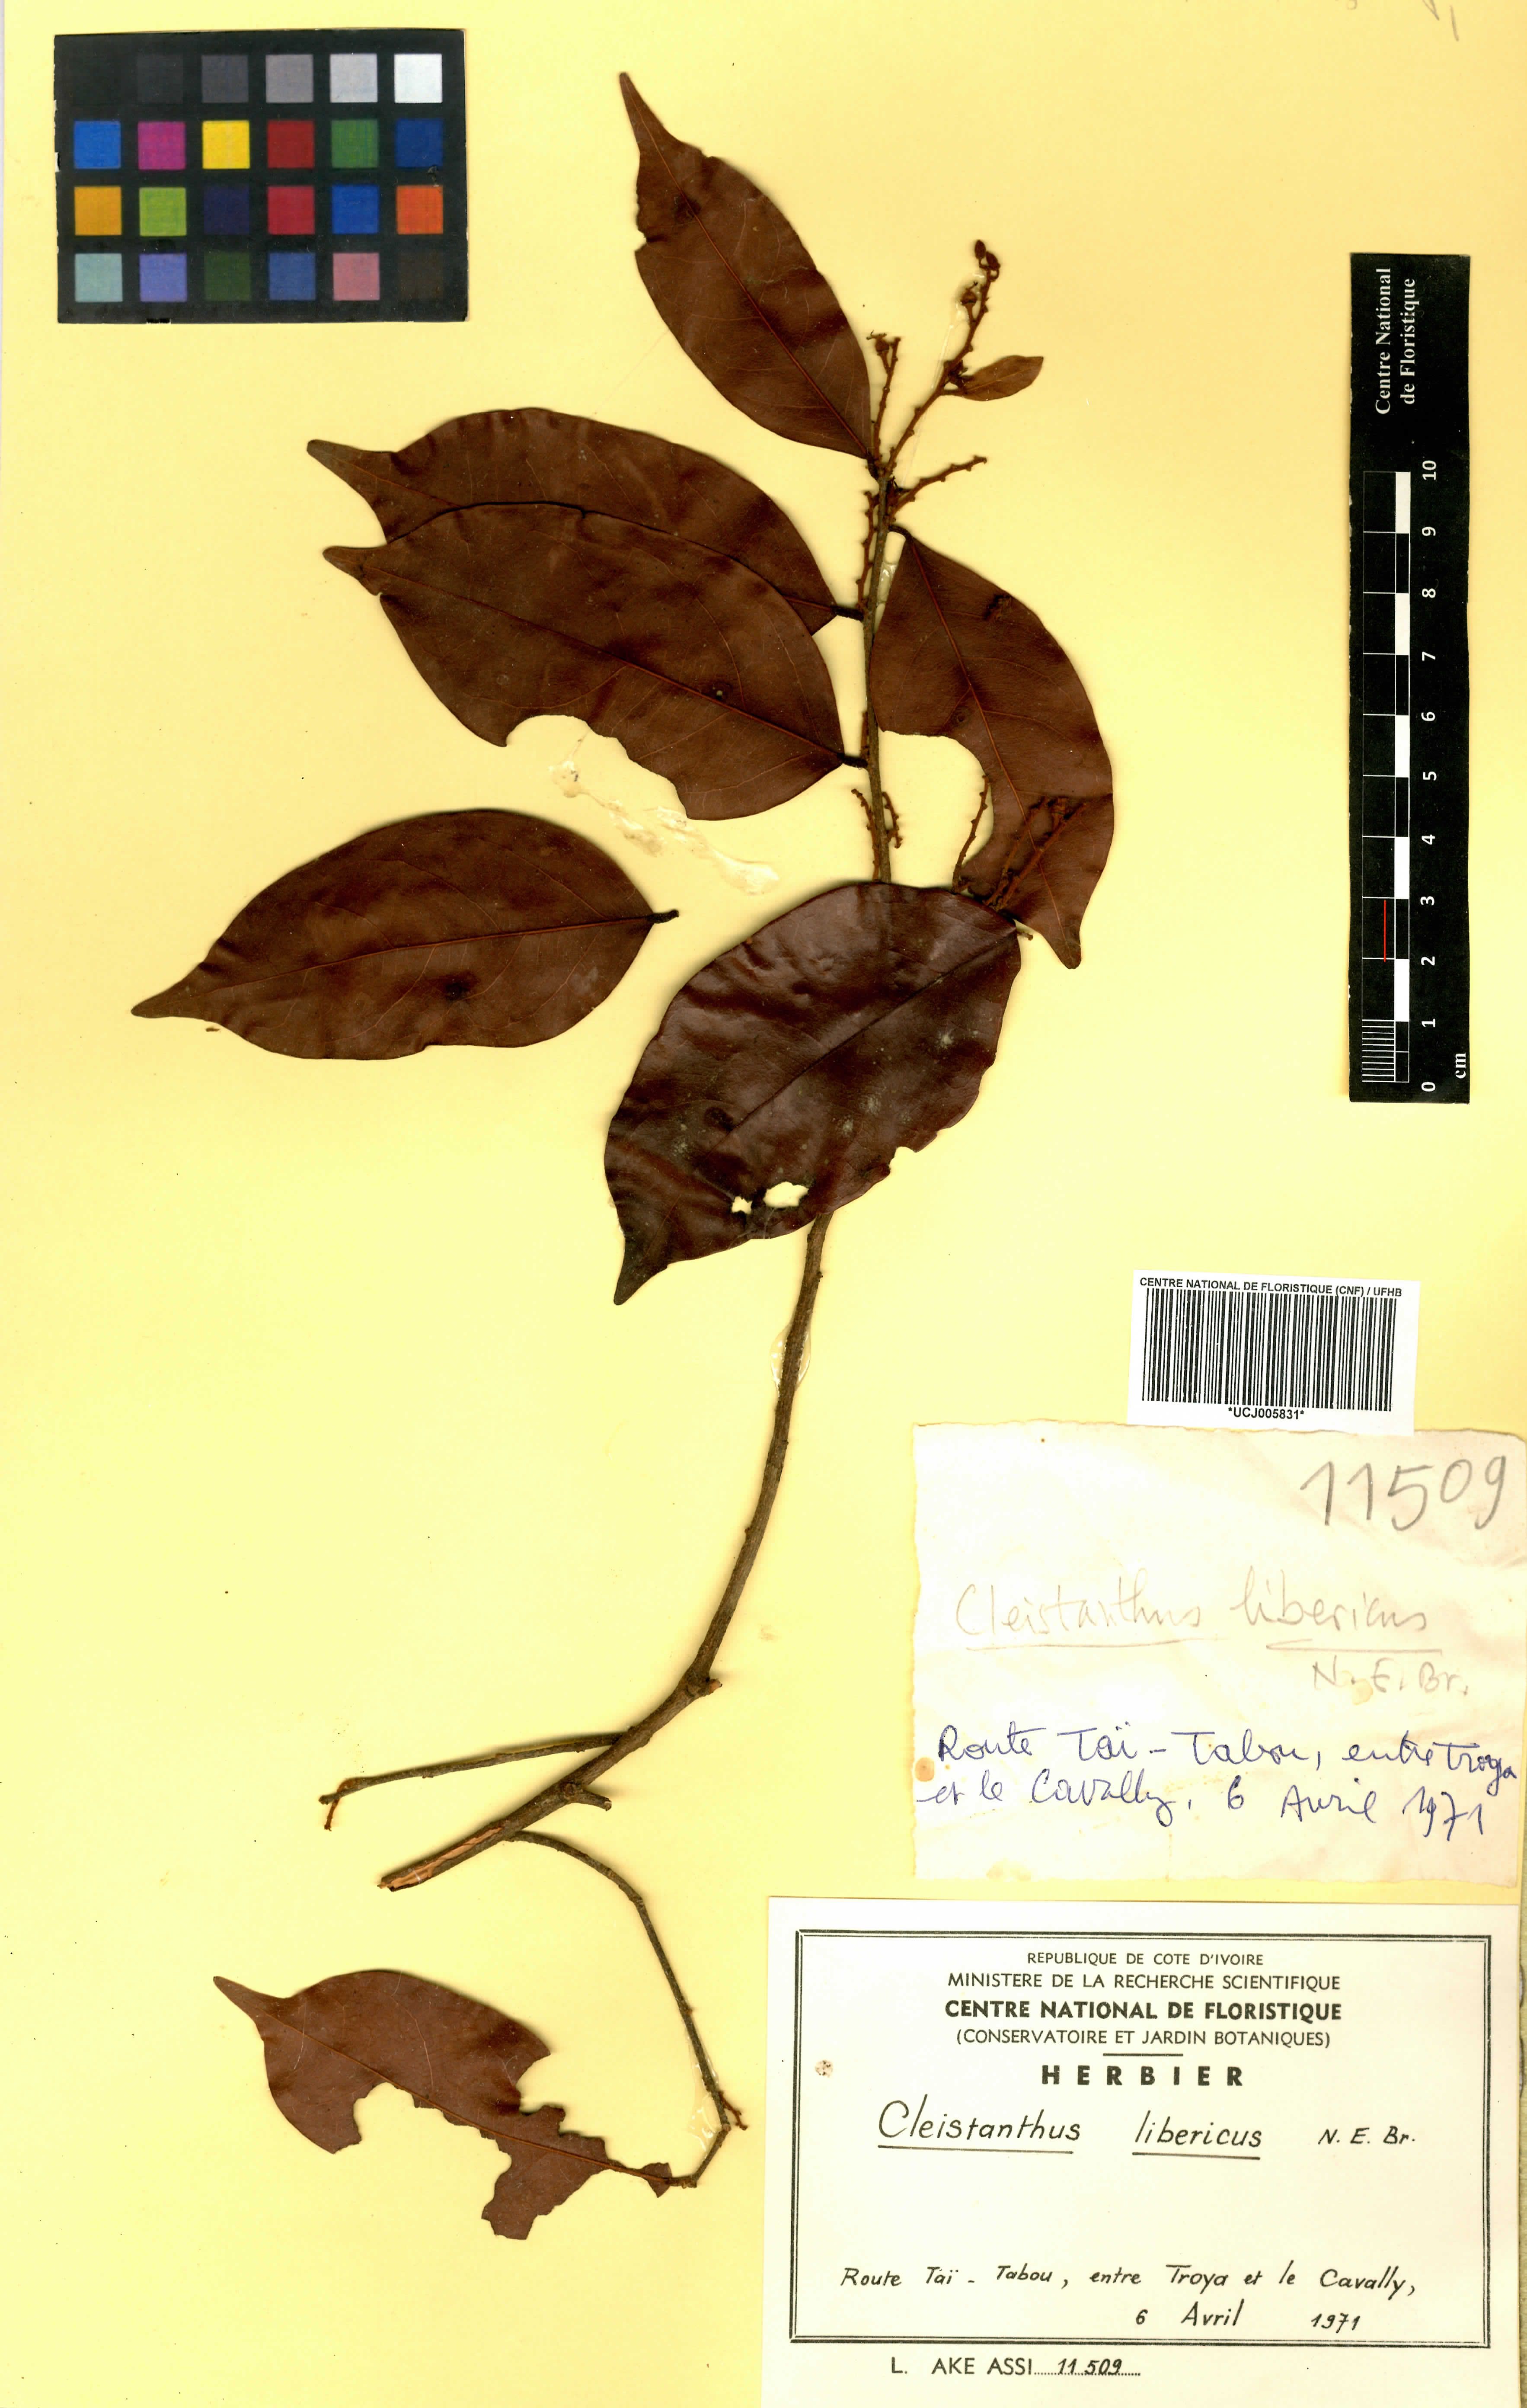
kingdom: Plantae
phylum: Tracheophyta
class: Magnoliopsida
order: Malpighiales
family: Phyllanthaceae
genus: Cleistanthus
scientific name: Cleistanthus libericus
